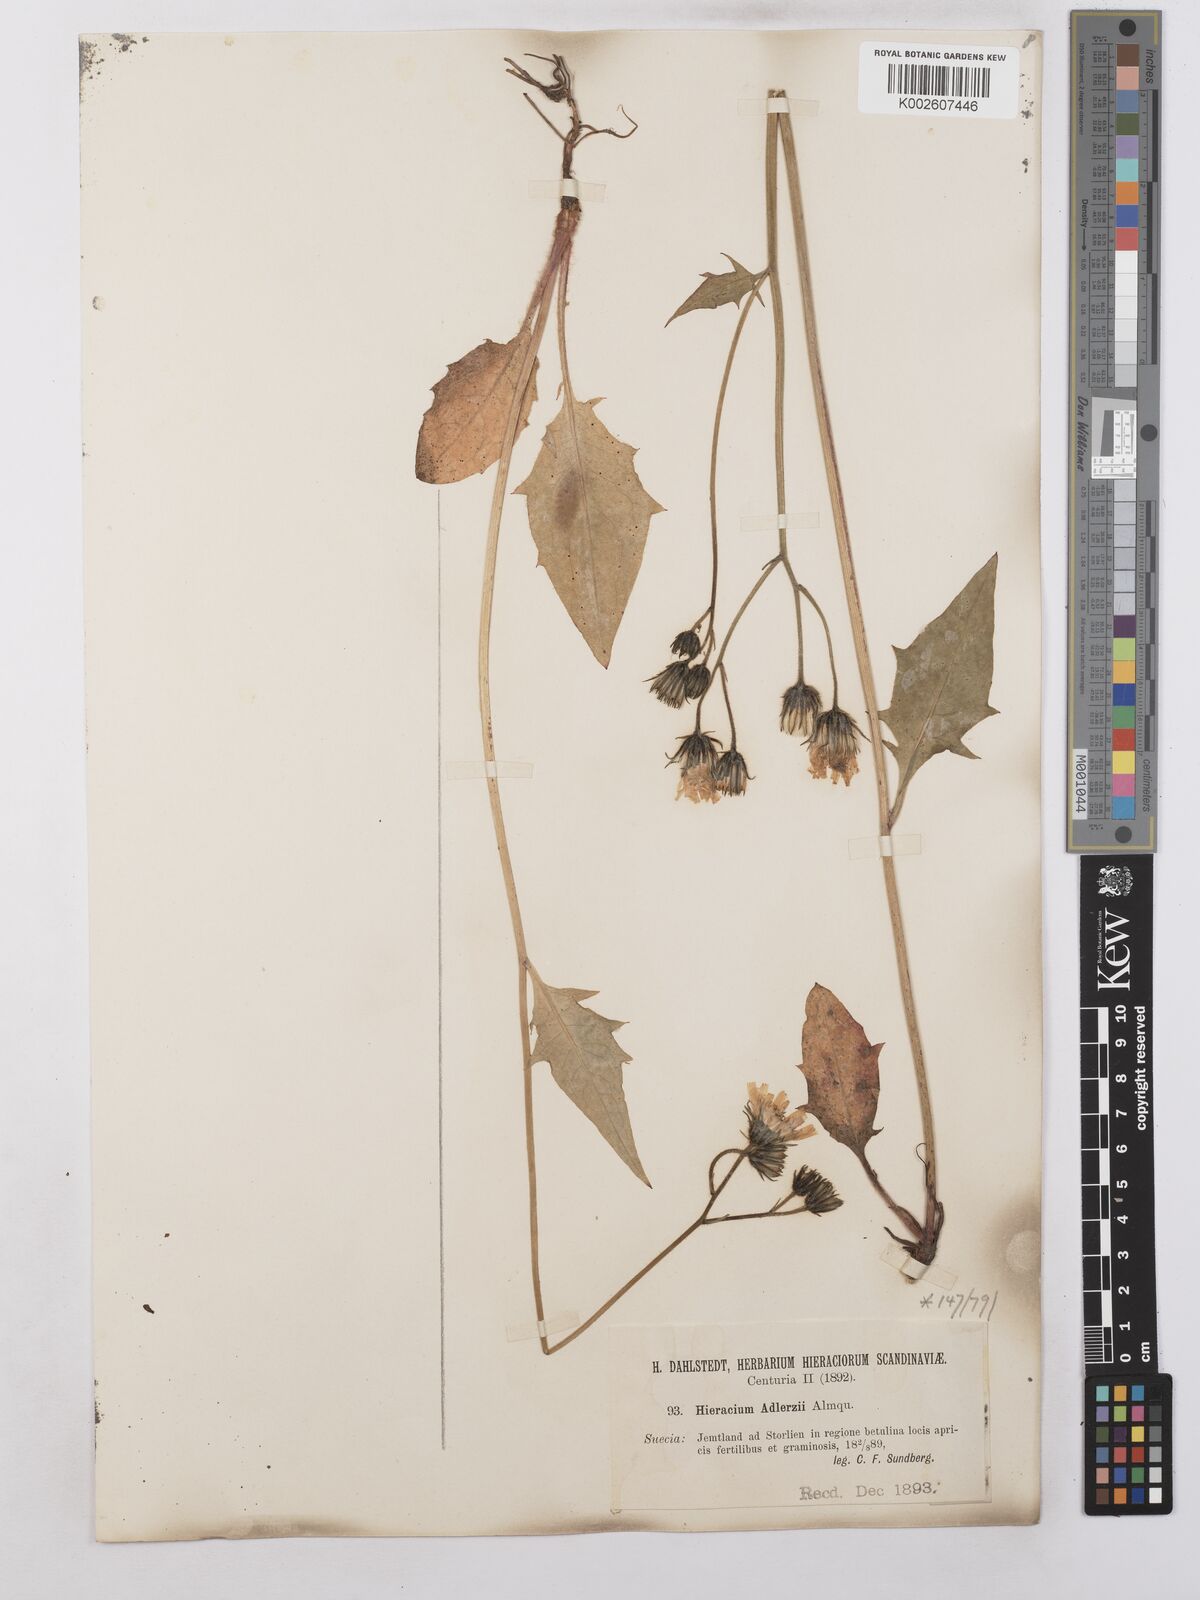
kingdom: Plantae
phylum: Tracheophyta
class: Magnoliopsida
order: Asterales
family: Asteraceae
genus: Hieracium
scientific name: Hieracium caesium
